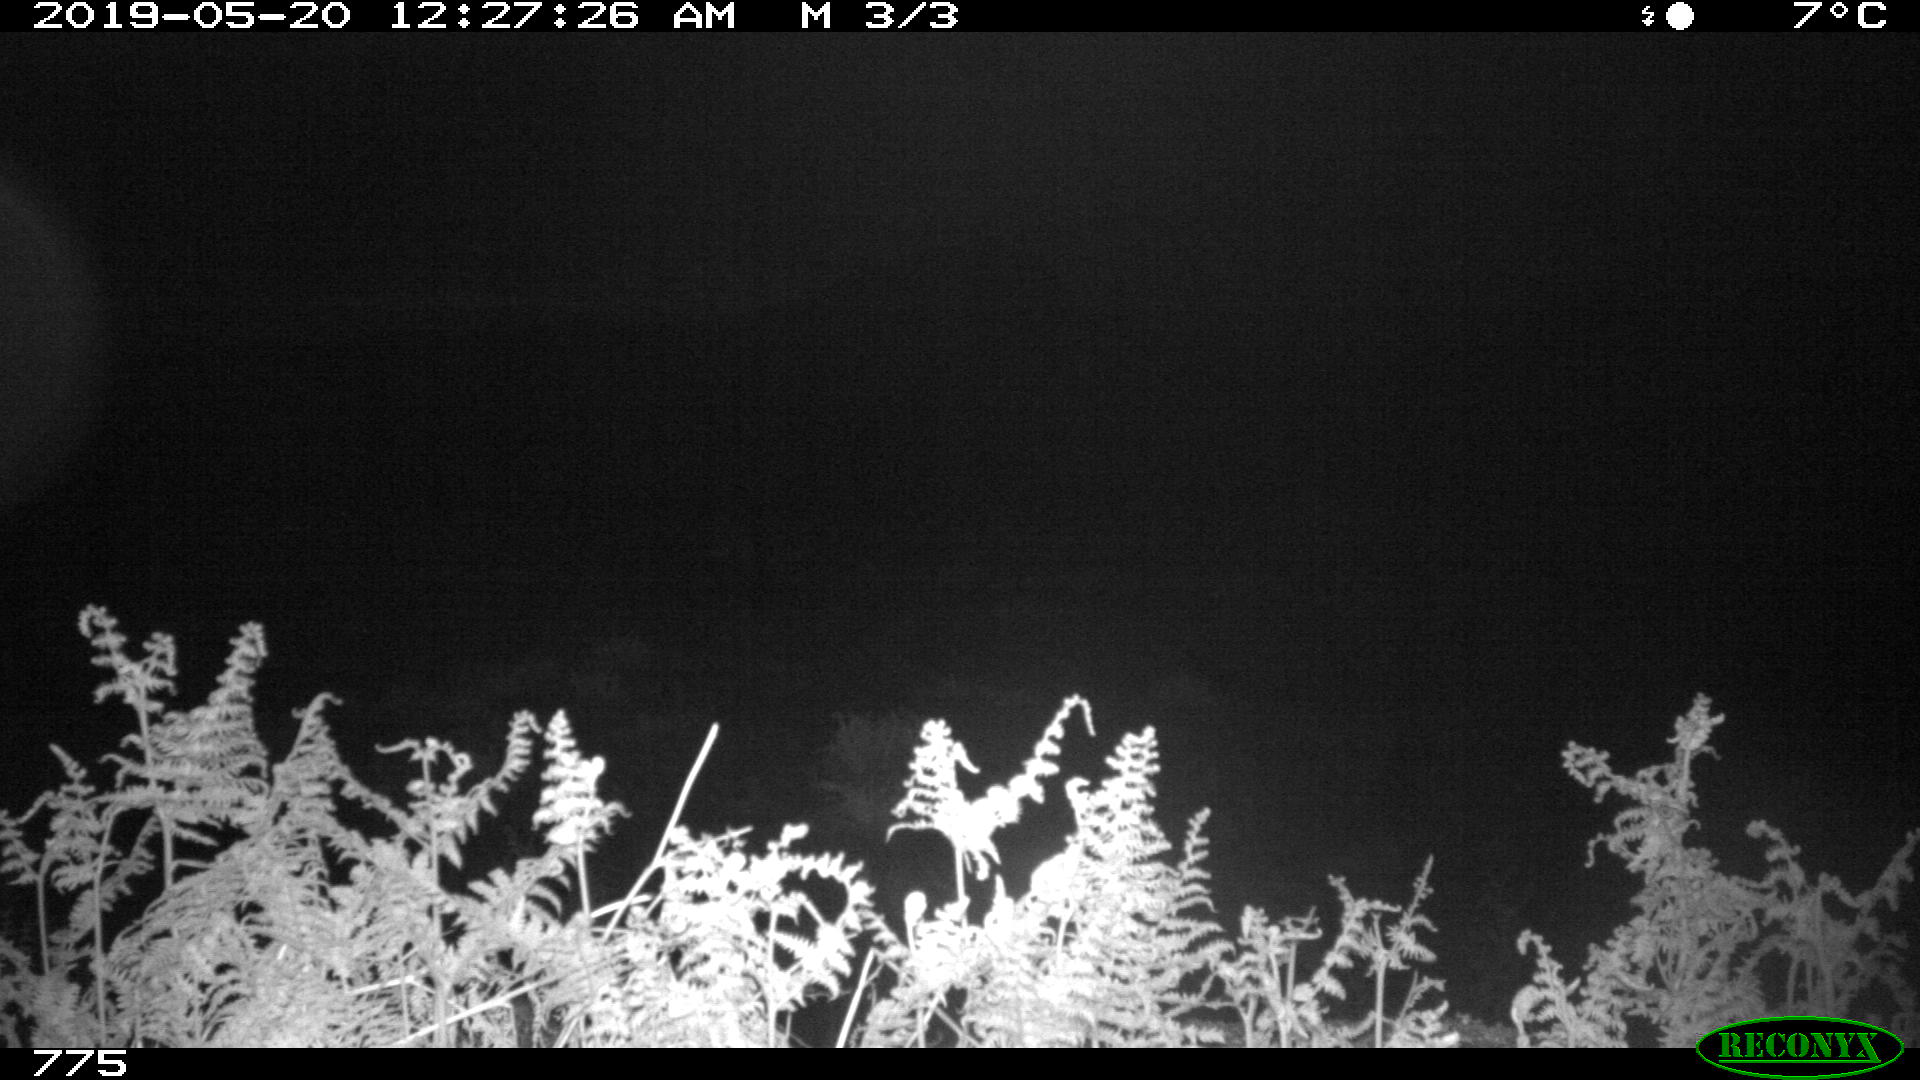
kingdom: Animalia
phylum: Chordata
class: Mammalia
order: Perissodactyla
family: Equidae
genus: Equus
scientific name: Equus caballus
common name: Horse
